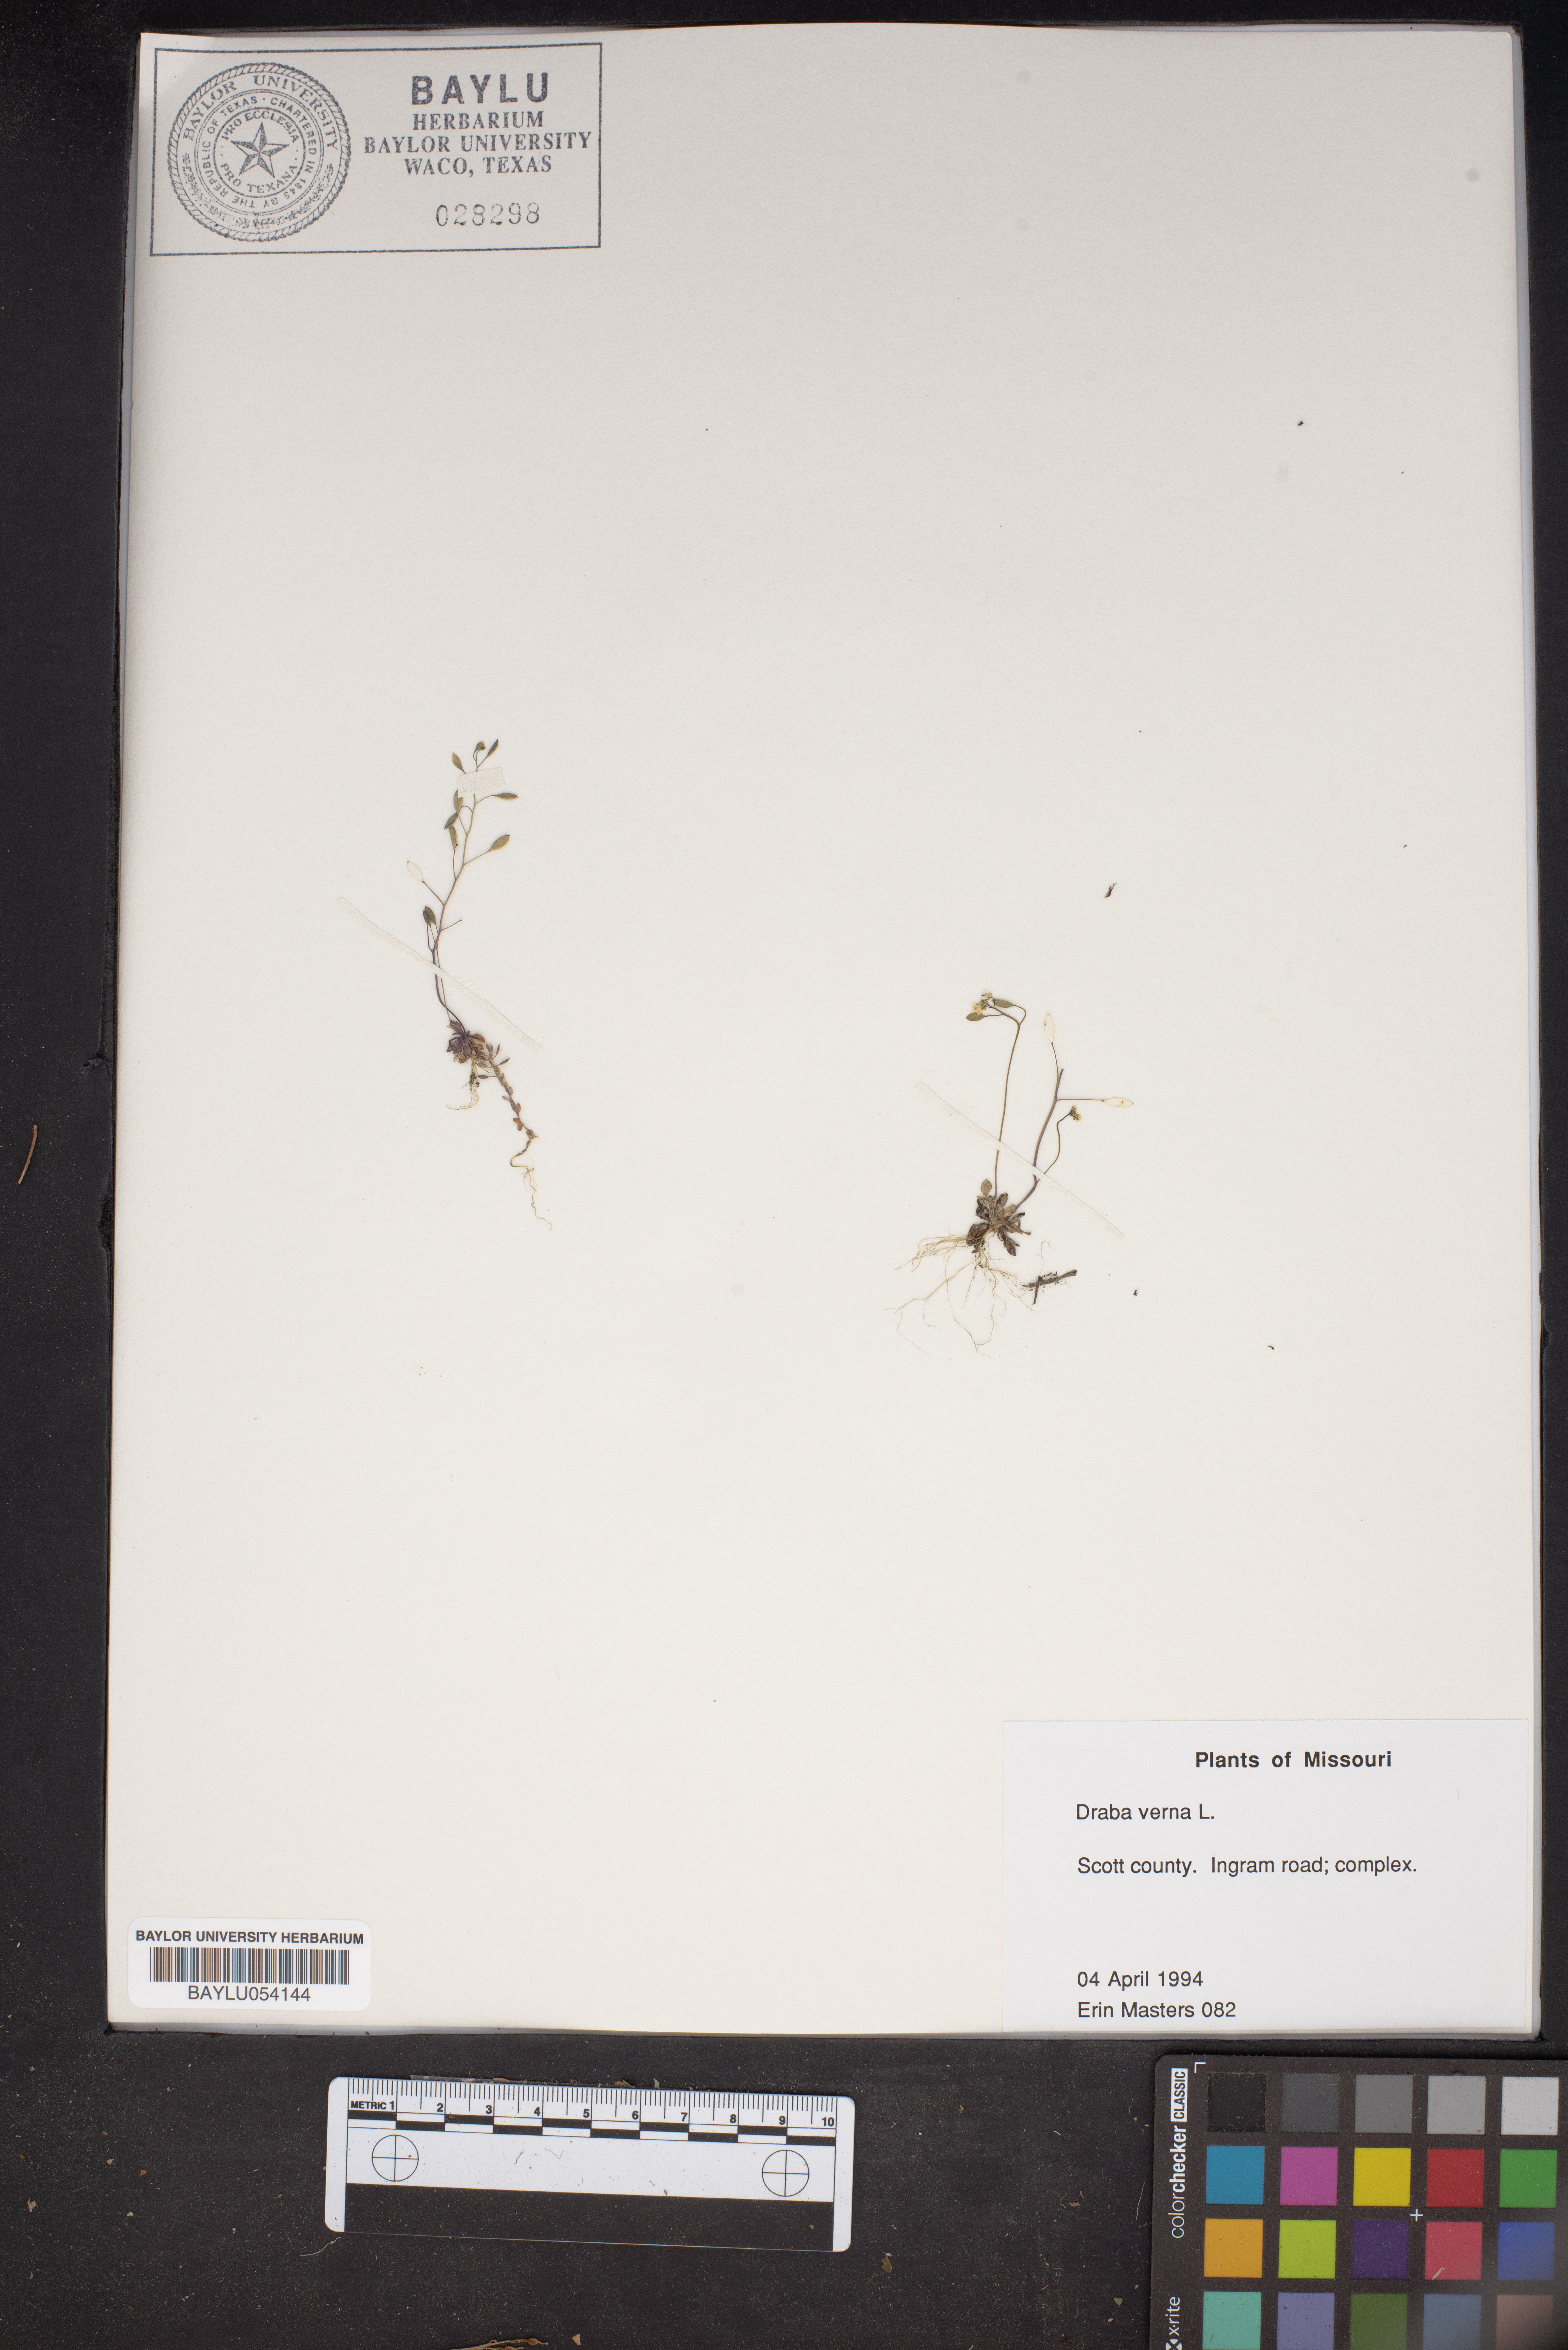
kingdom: Plantae
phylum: Tracheophyta
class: Magnoliopsida
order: Brassicales
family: Brassicaceae
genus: Draba
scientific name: Draba verna
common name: Spring draba
